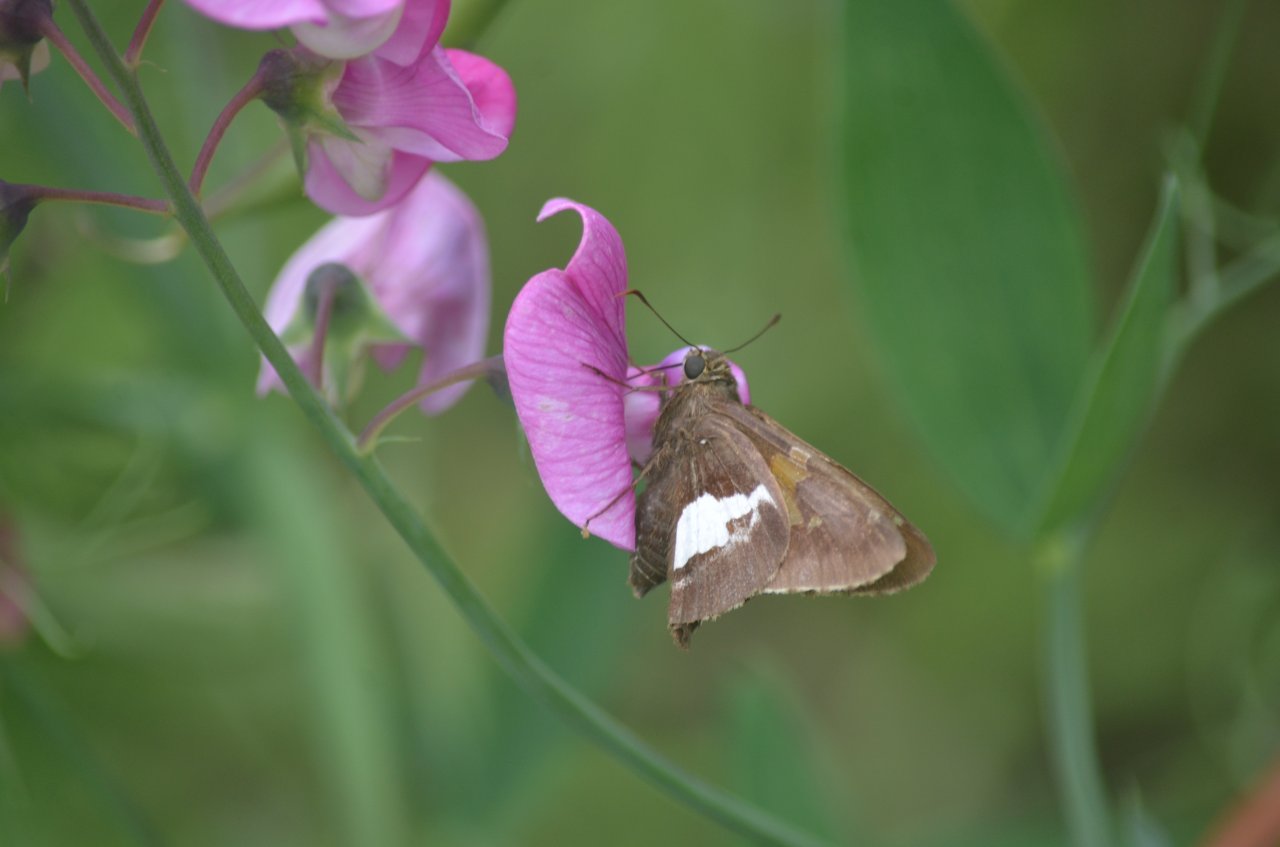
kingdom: Animalia
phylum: Arthropoda
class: Insecta
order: Lepidoptera
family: Hesperiidae
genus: Epargyreus
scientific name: Epargyreus clarus
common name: Silver-spotted Skipper
